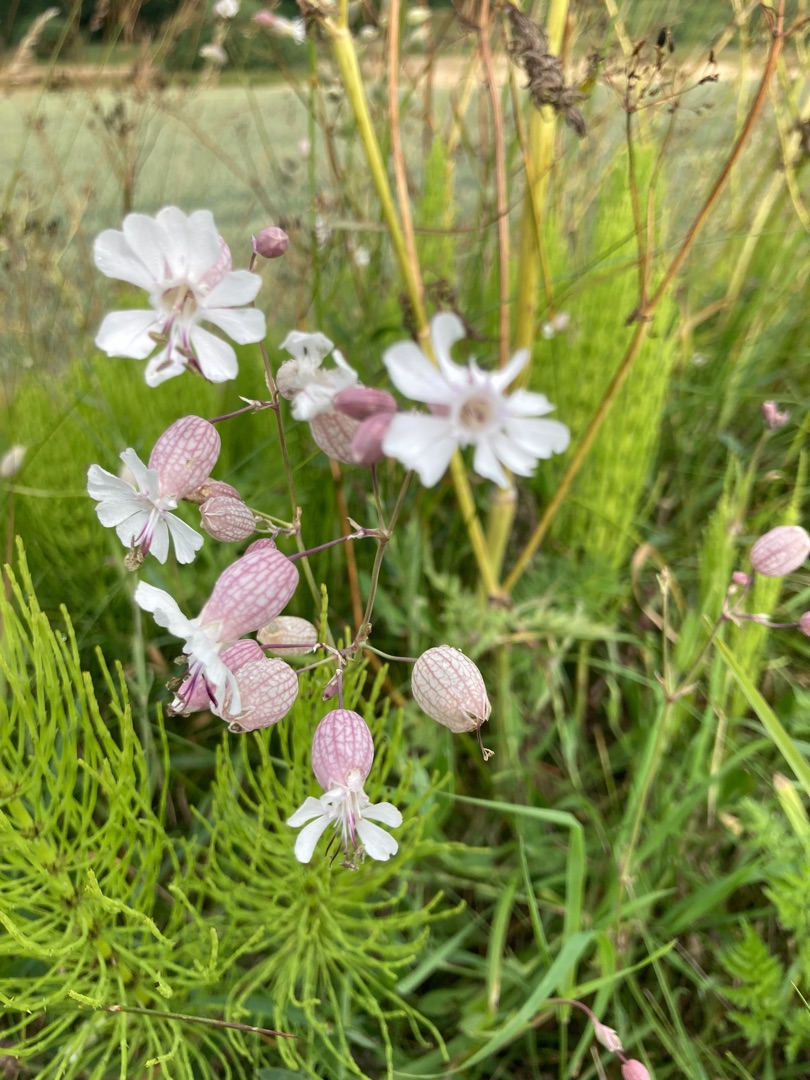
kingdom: Plantae
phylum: Tracheophyta
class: Magnoliopsida
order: Caryophyllales
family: Caryophyllaceae
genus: Silene
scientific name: Silene vulgaris
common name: Blæresmælde
